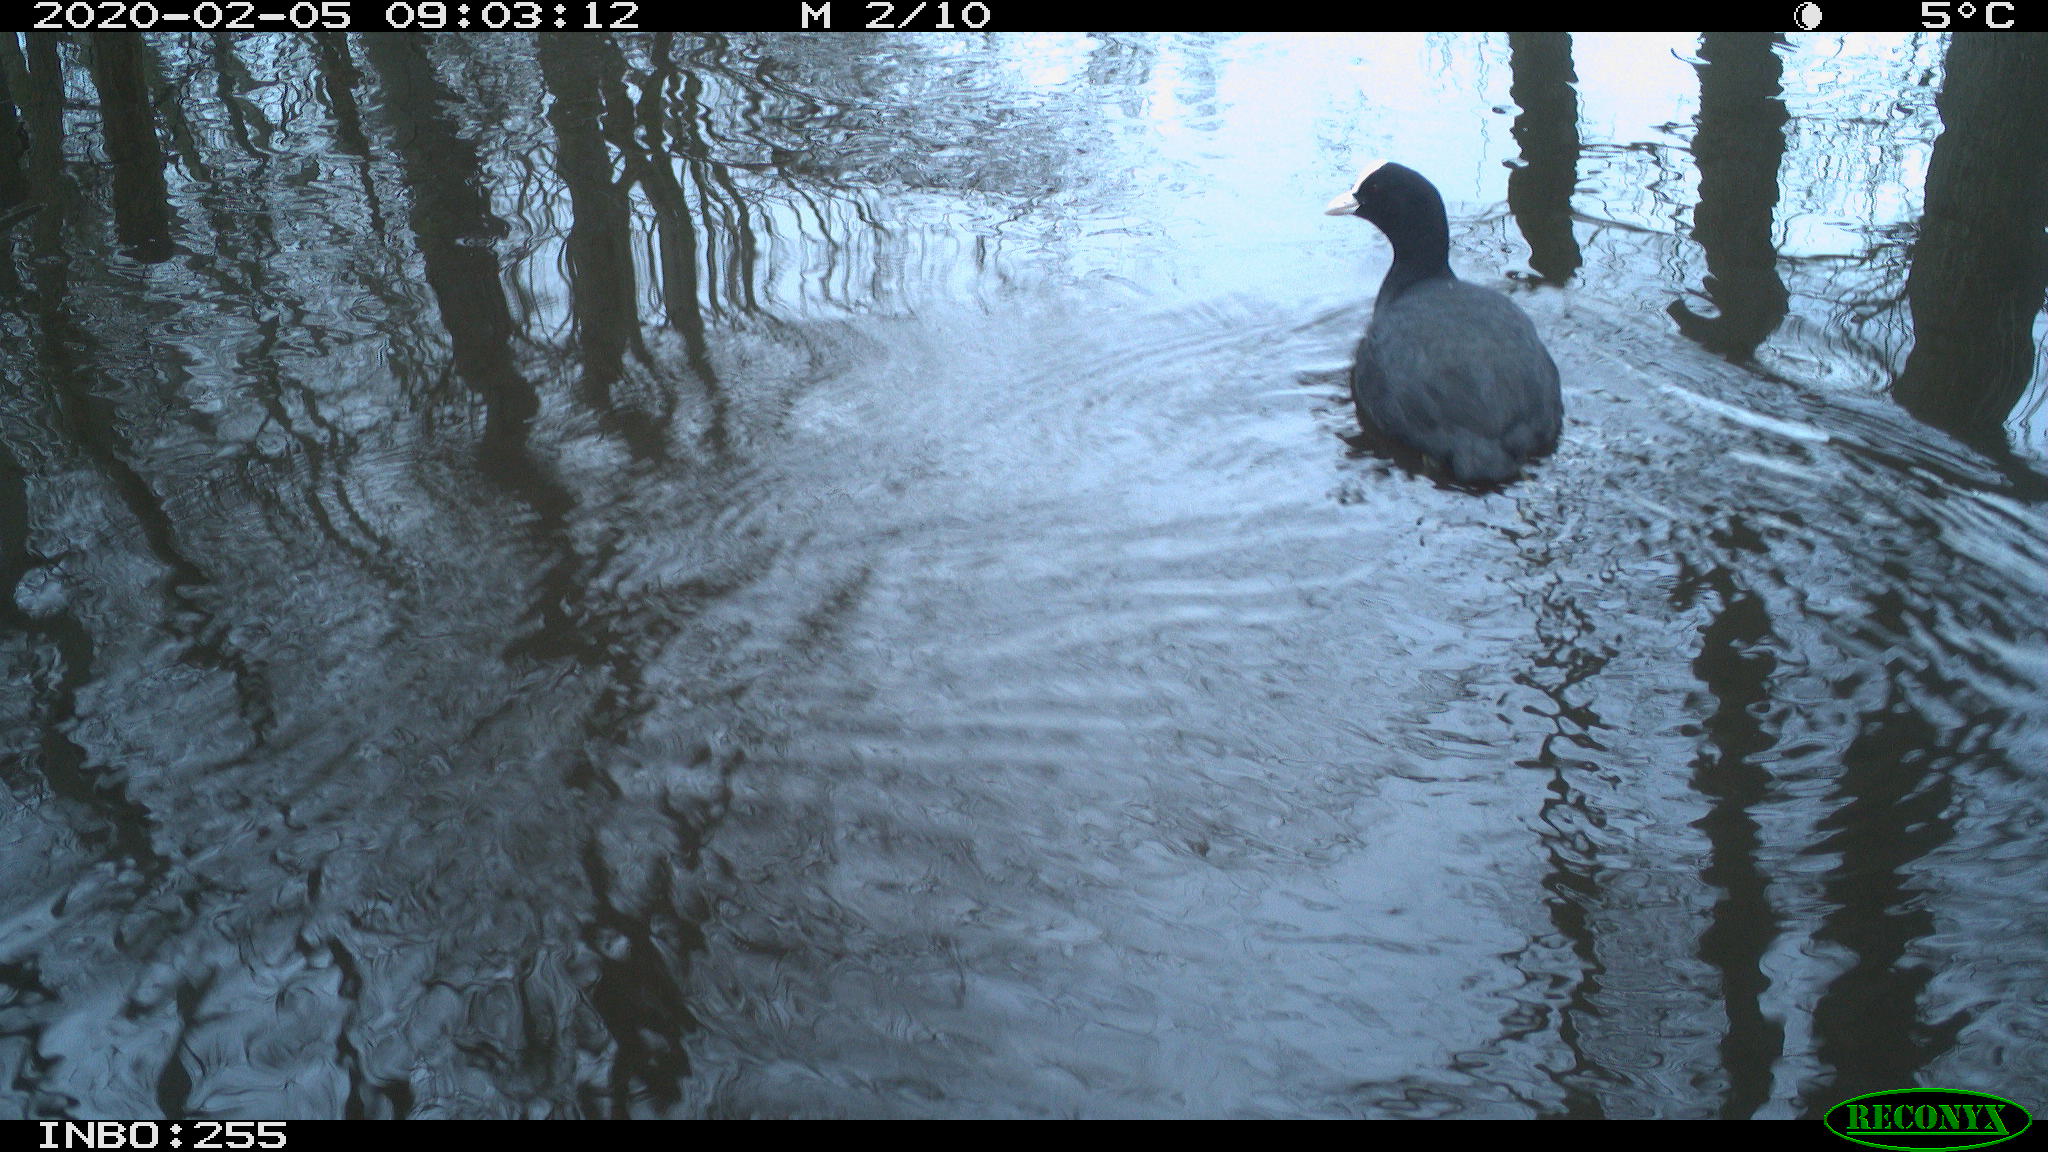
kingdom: Animalia
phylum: Chordata
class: Aves
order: Gruiformes
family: Rallidae
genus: Fulica
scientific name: Fulica atra
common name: Eurasian coot
